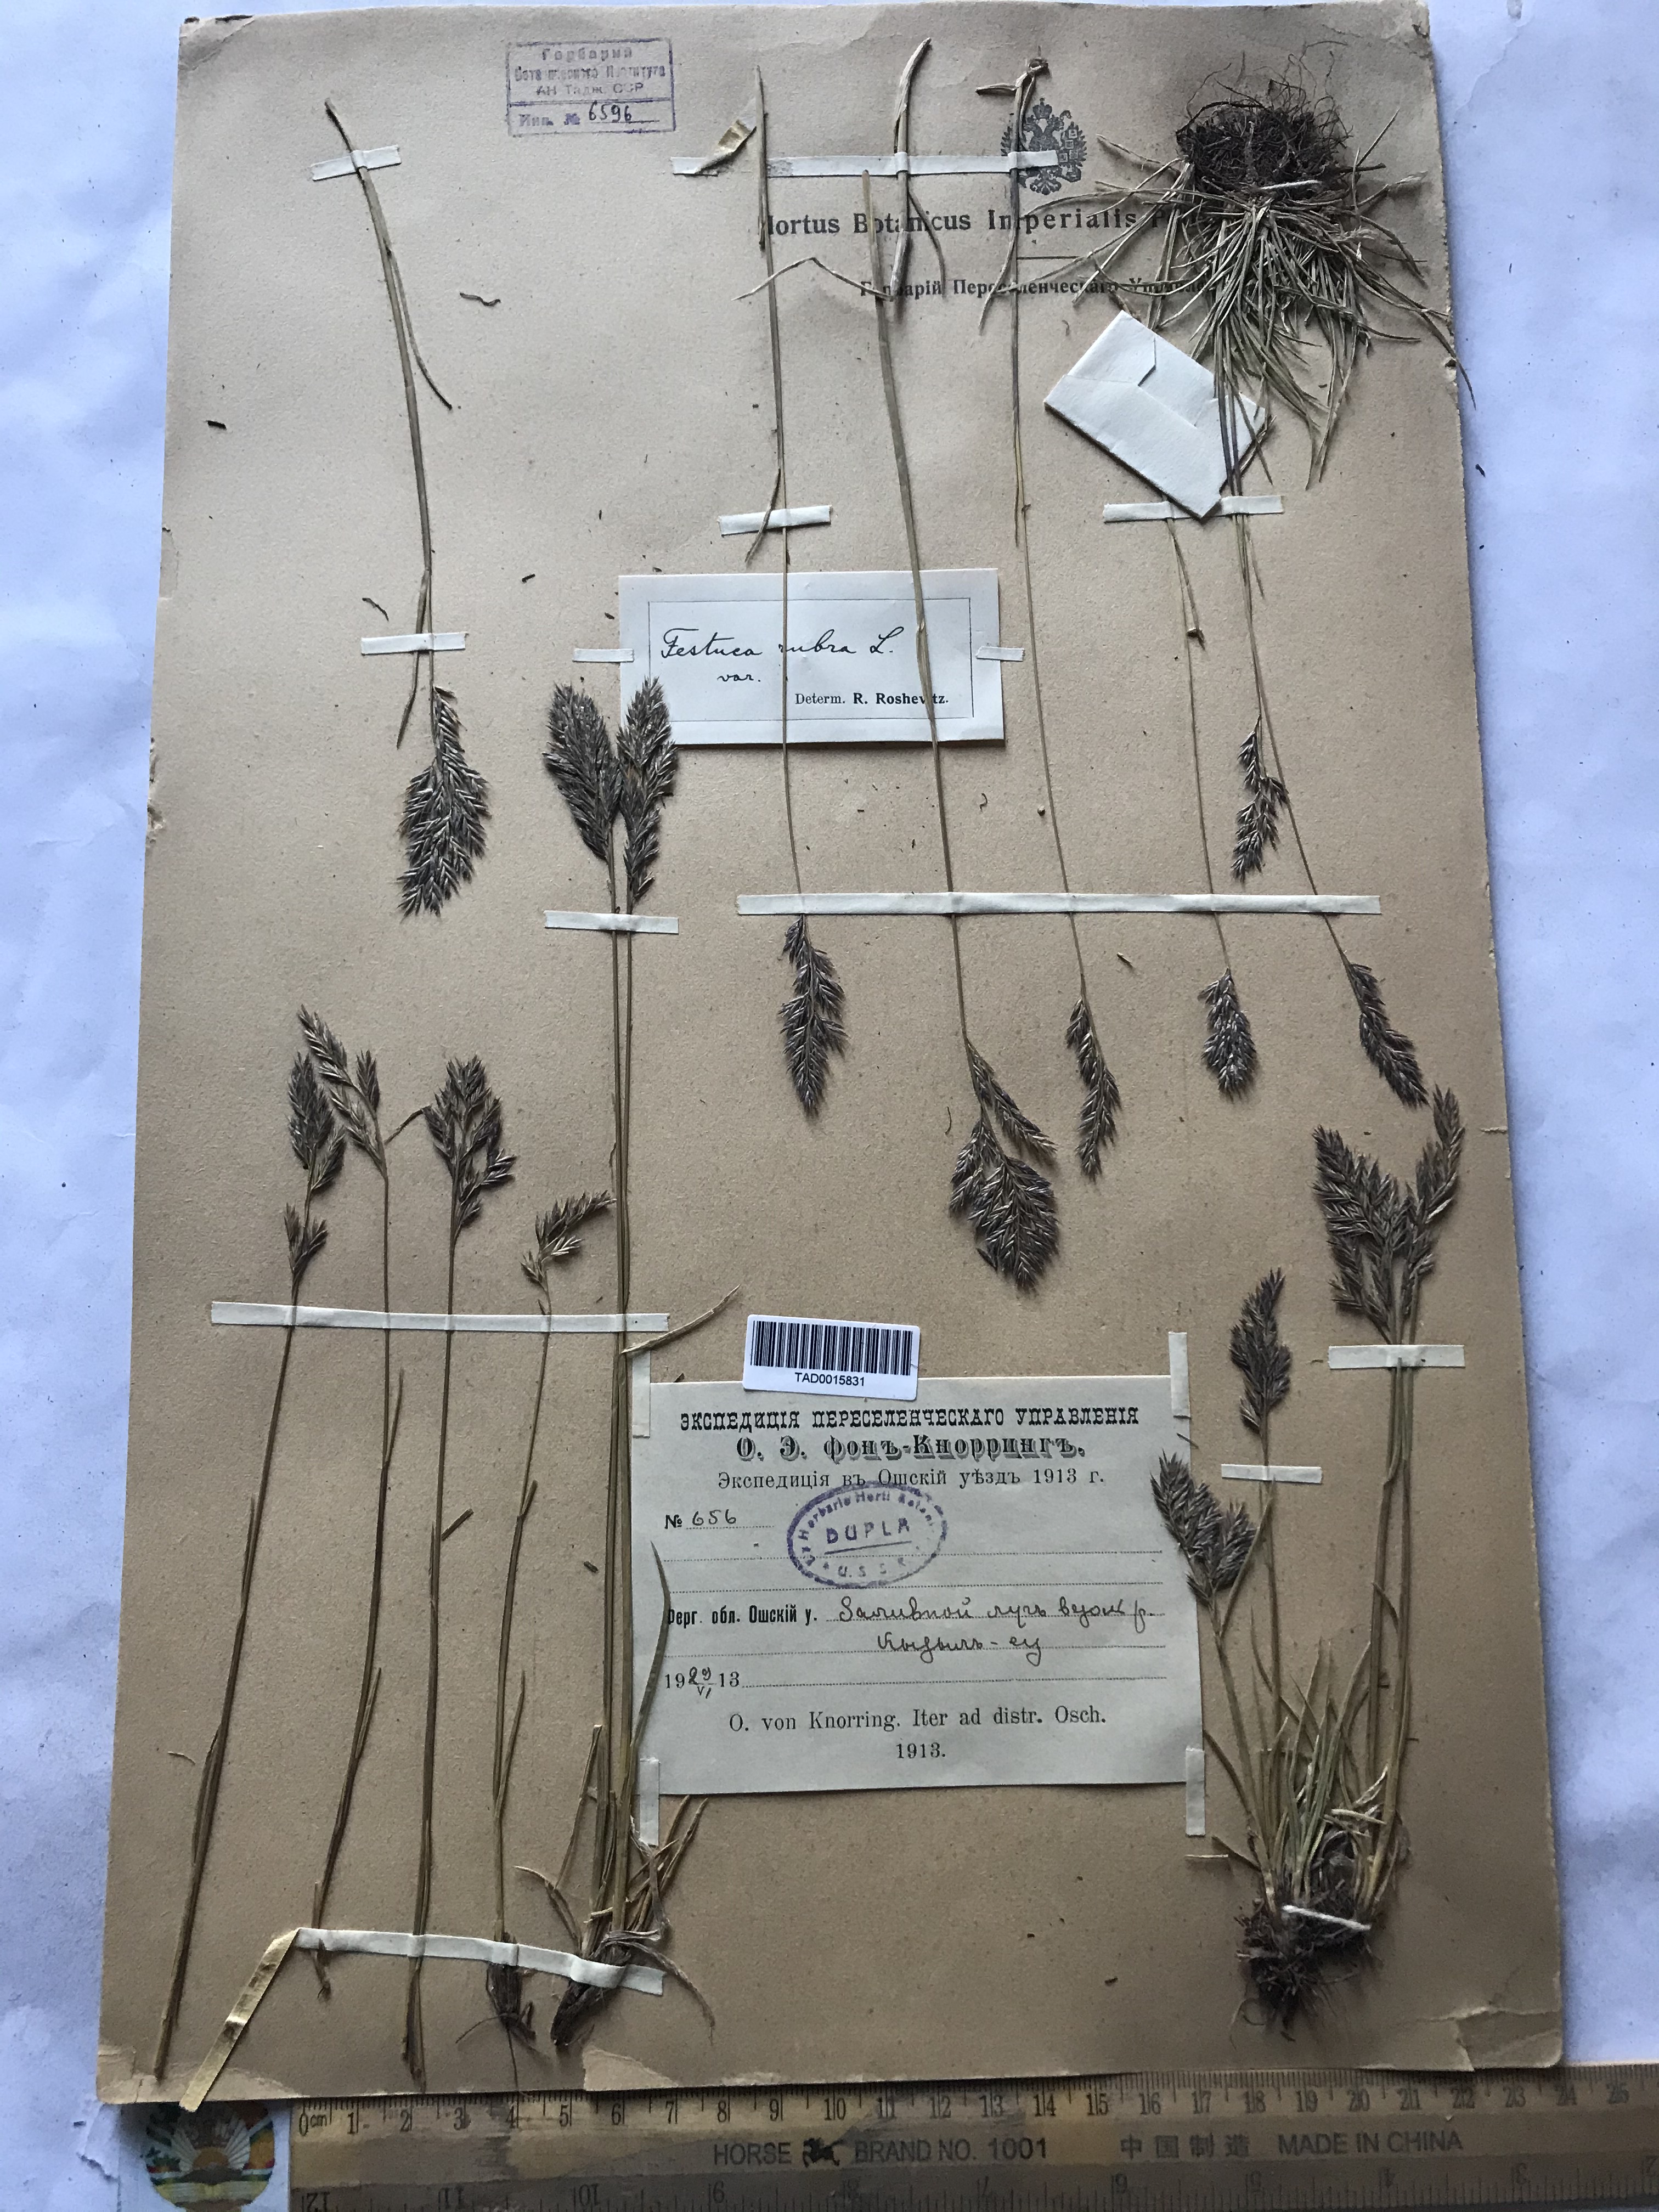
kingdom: Plantae
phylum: Tracheophyta
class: Liliopsida
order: Poales
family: Poaceae
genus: Festuca
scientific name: Festuca rubra
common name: Red fescue
